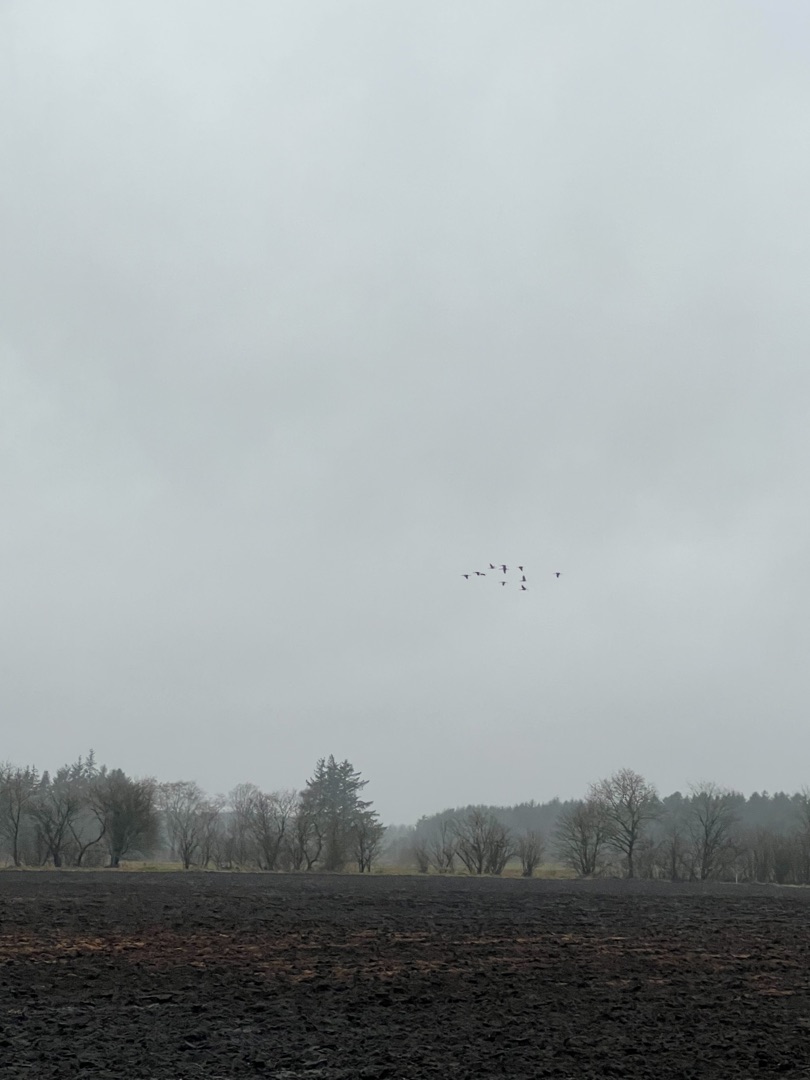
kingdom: Animalia
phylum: Chordata
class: Aves
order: Gruiformes
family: Gruidae
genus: Grus
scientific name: Grus grus
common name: Trane
